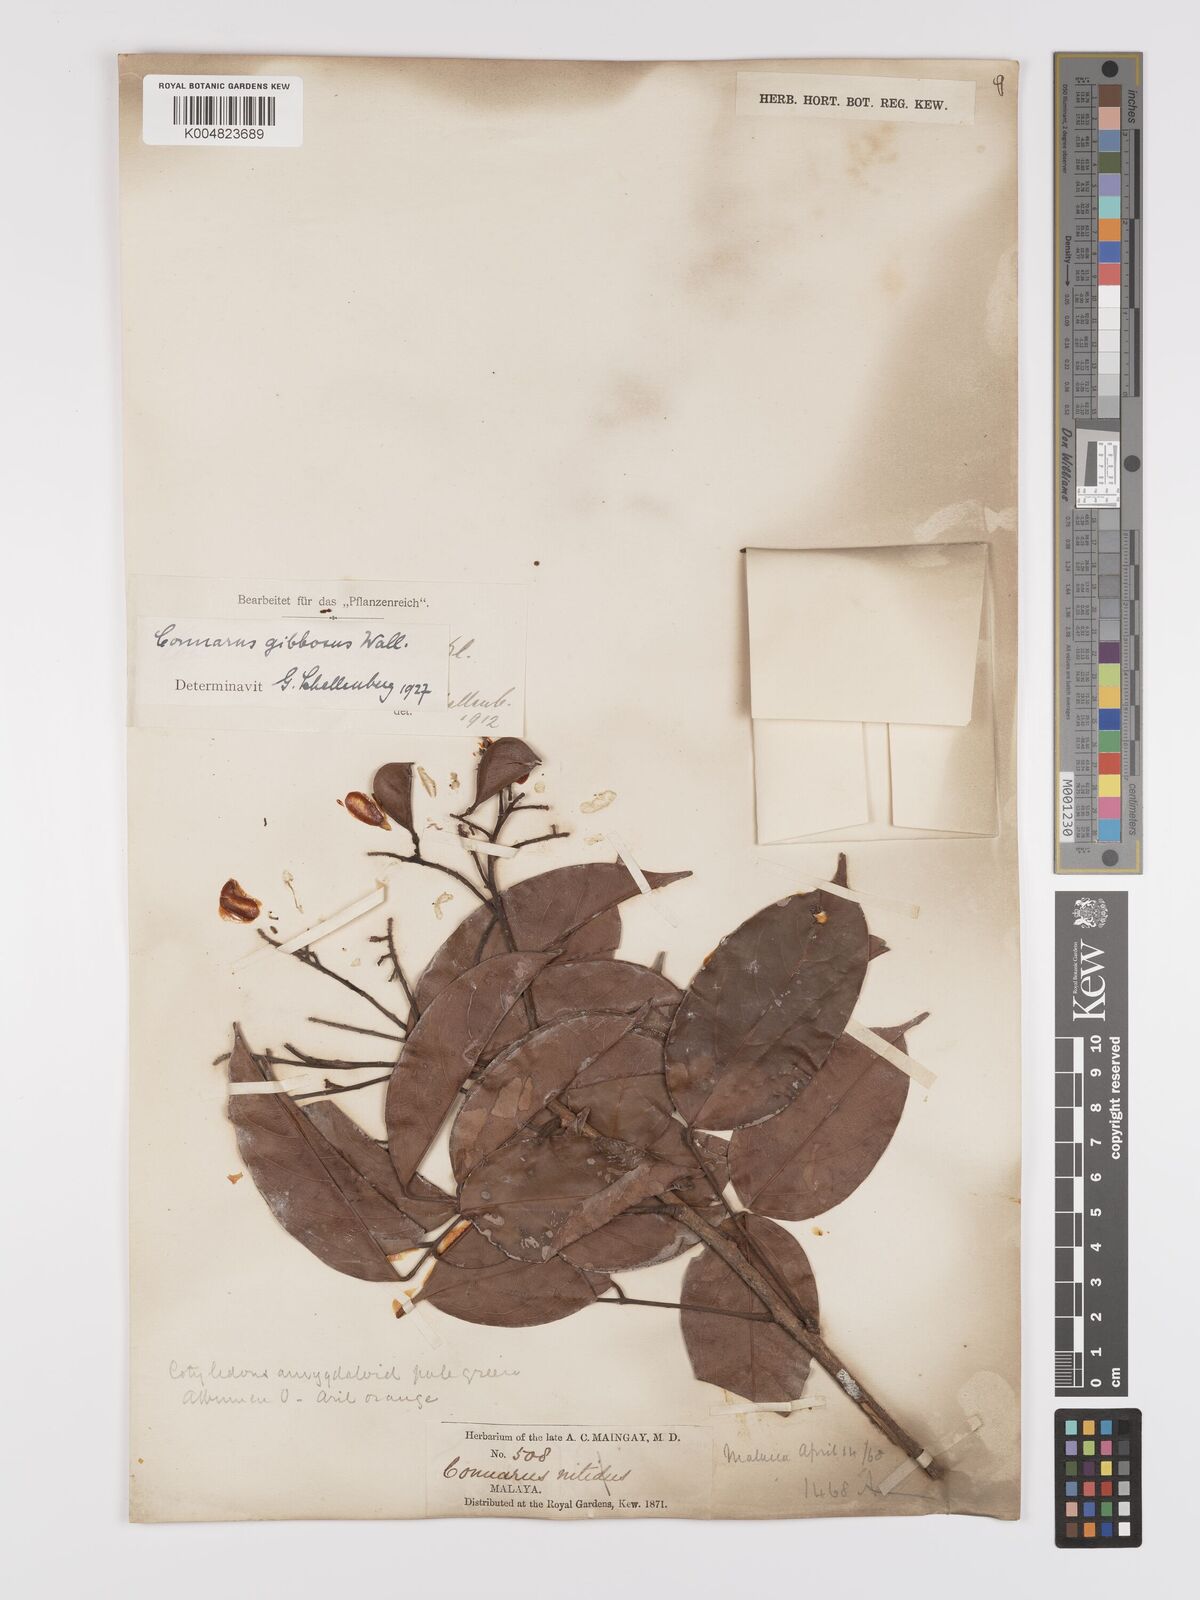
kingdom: Plantae
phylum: Tracheophyta
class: Magnoliopsida
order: Oxalidales
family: Connaraceae
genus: Connarus
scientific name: Connarus semidecandrus
